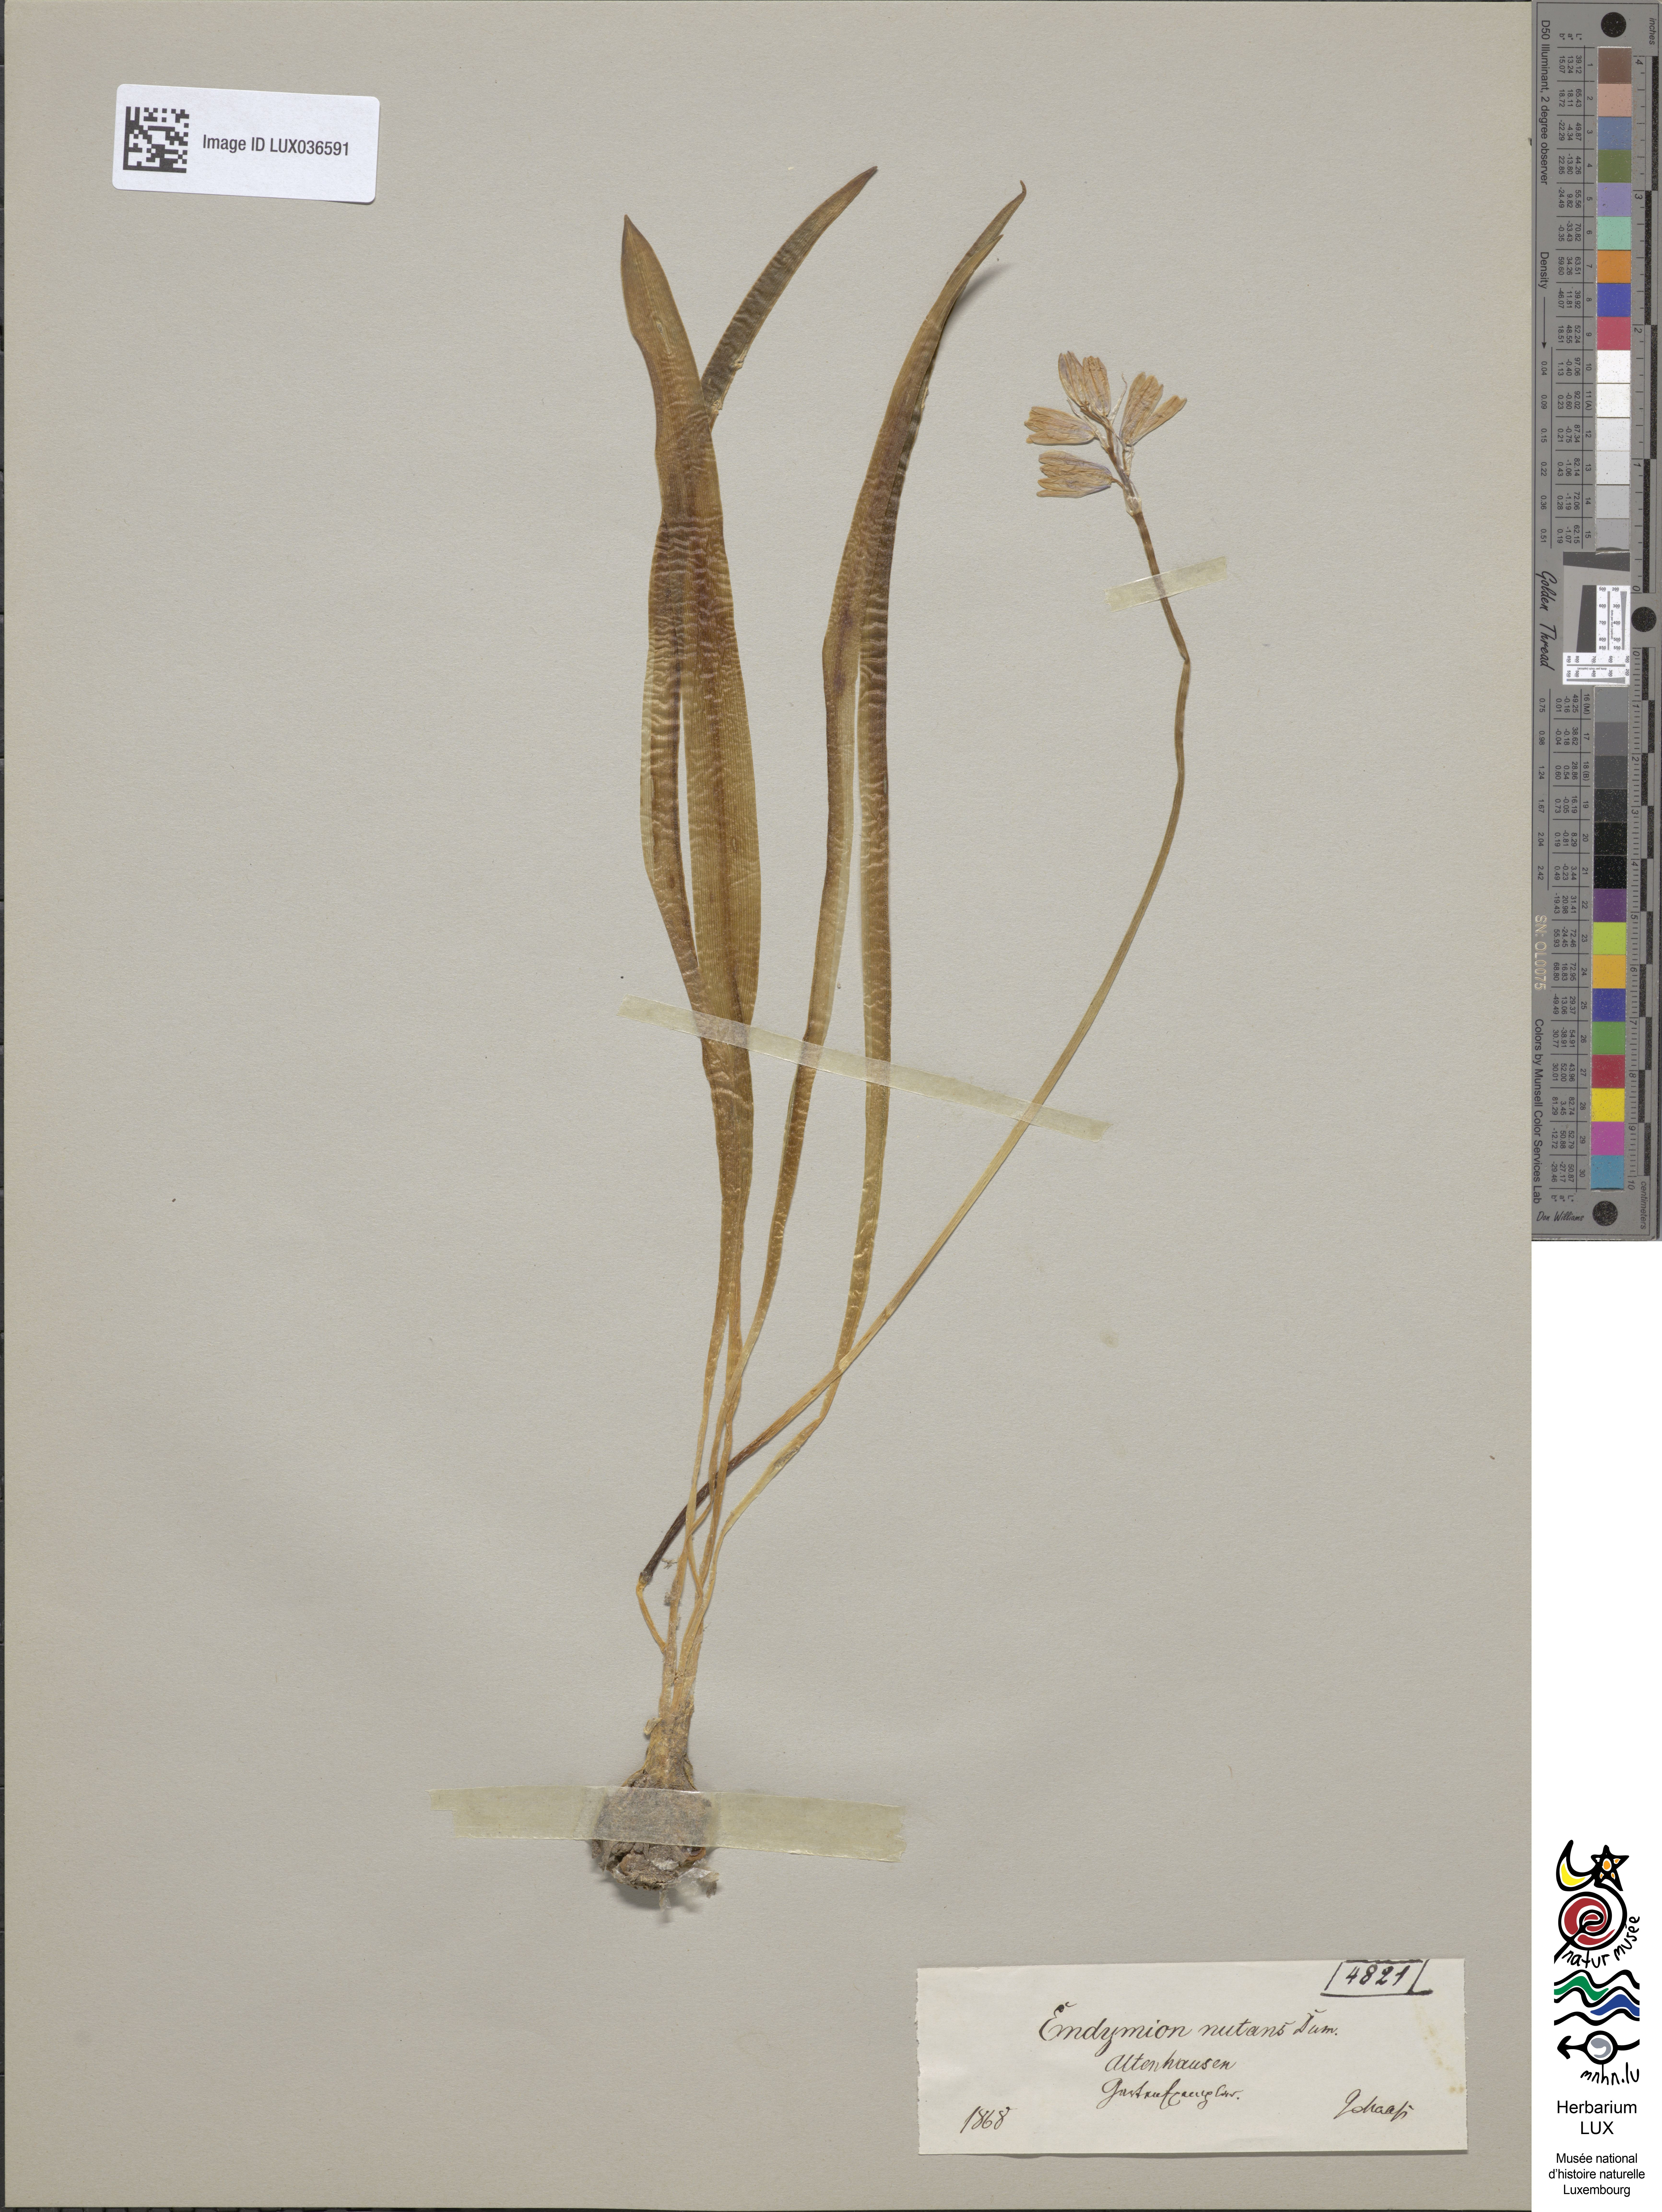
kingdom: Plantae
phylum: Tracheophyta
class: Liliopsida
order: Asparagales
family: Asparagaceae
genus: Hyacinthoides
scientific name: Hyacinthoides non-scripta
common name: Bluebell
